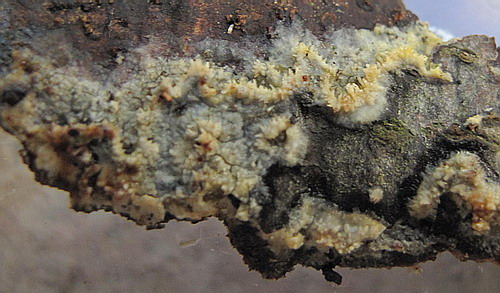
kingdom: Fungi
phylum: Basidiomycota
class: Agaricomycetes
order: Polyporales
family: Meruliaceae
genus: Mycoacia
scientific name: Mycoacia aurea
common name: lang vokspig
